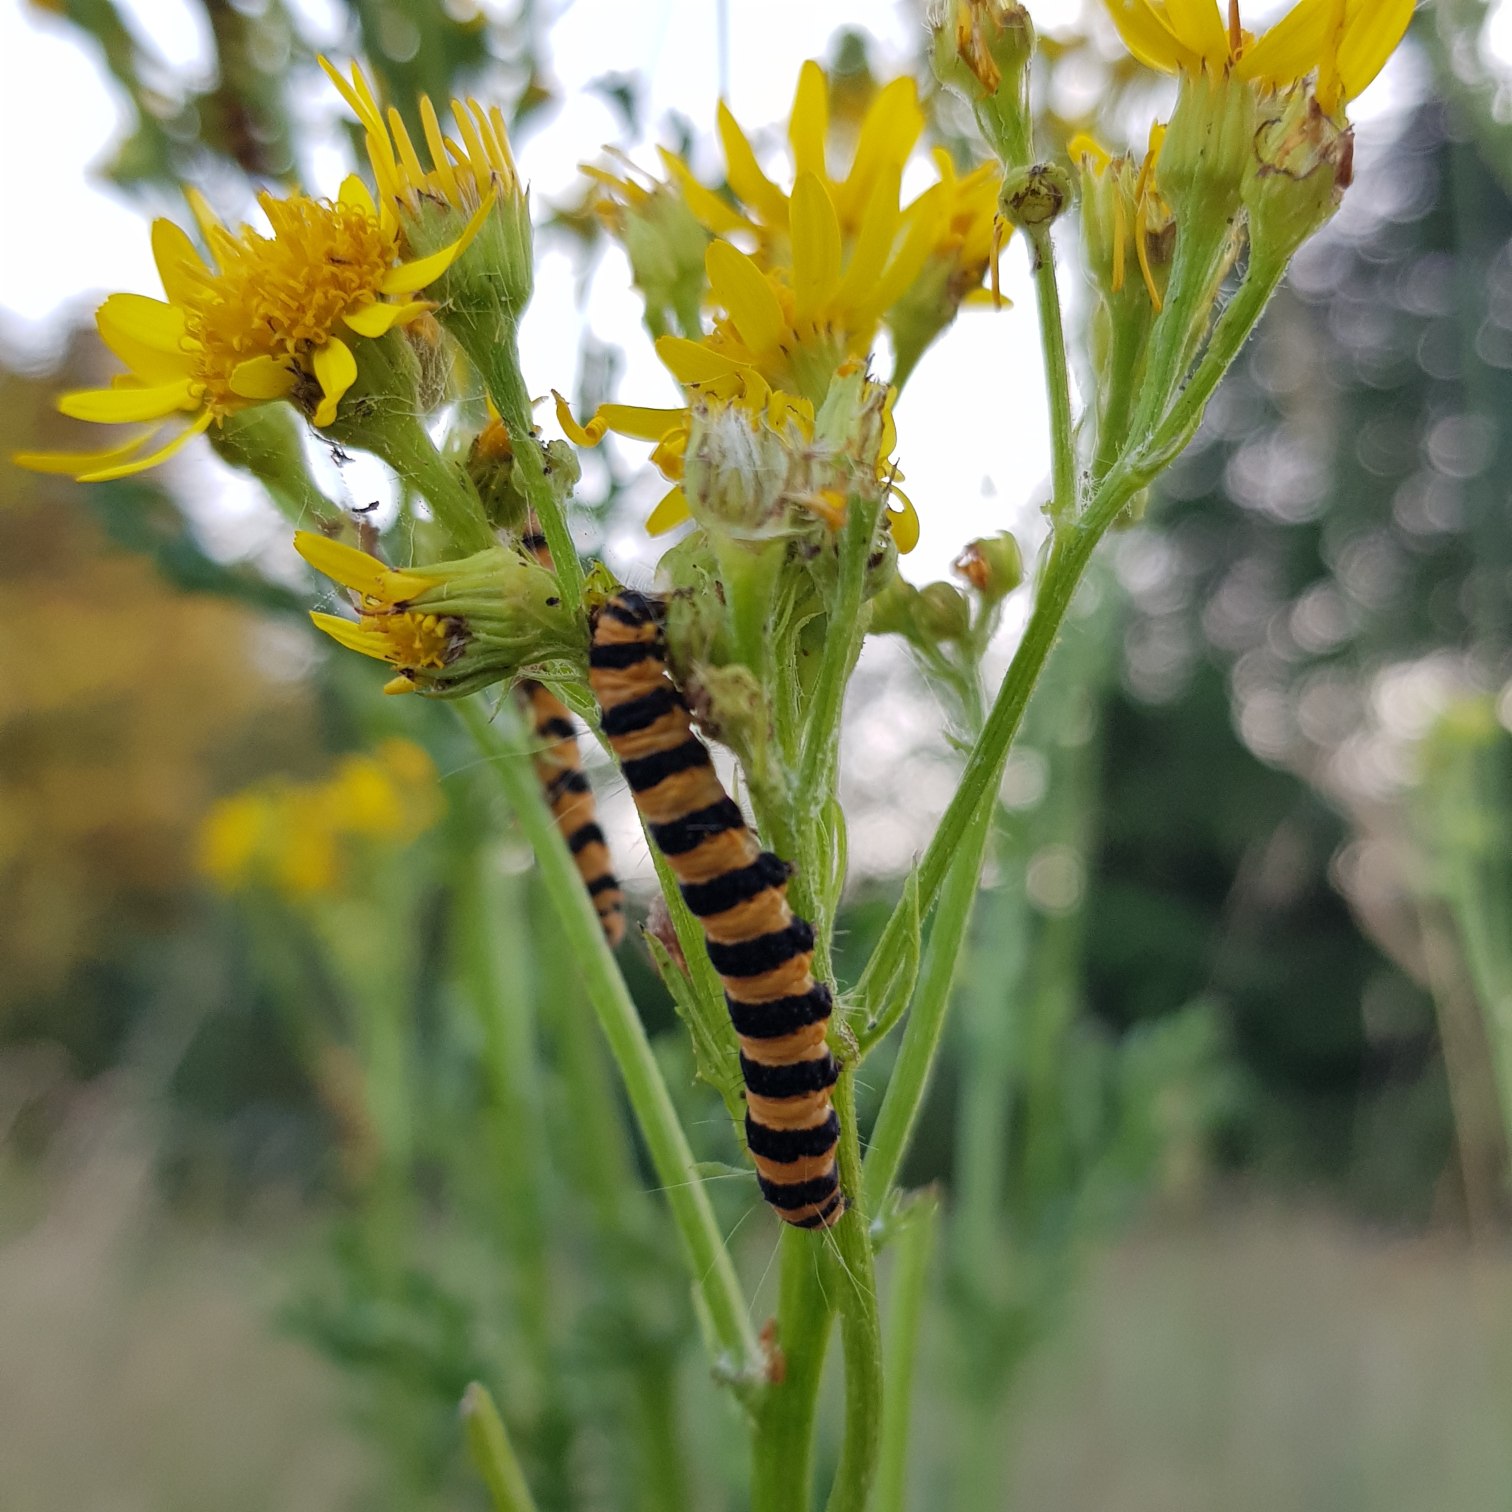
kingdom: Animalia
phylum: Arthropoda
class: Insecta
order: Lepidoptera
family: Erebidae
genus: Tyria
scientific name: Tyria jacobaeae
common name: Blodplet
